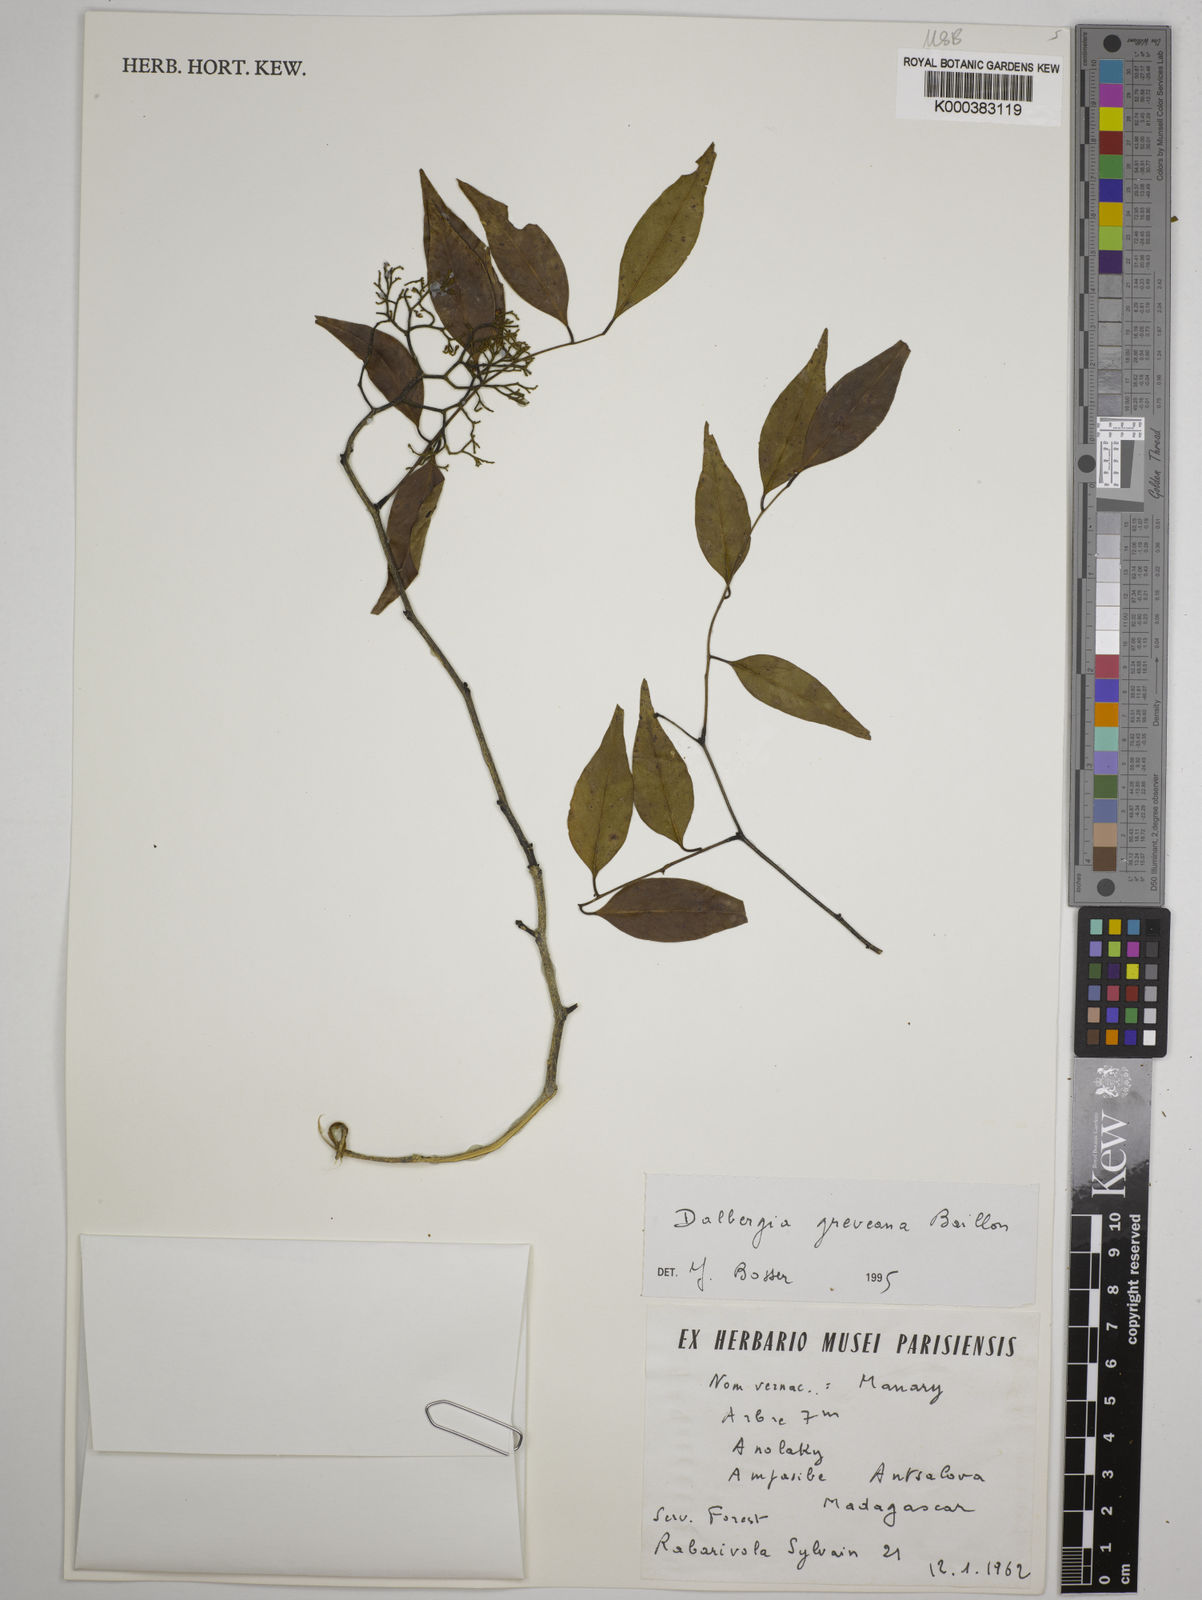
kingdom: Plantae
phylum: Tracheophyta
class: Magnoliopsida
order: Fabales
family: Fabaceae
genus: Dalbergia
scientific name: Dalbergia greveana
